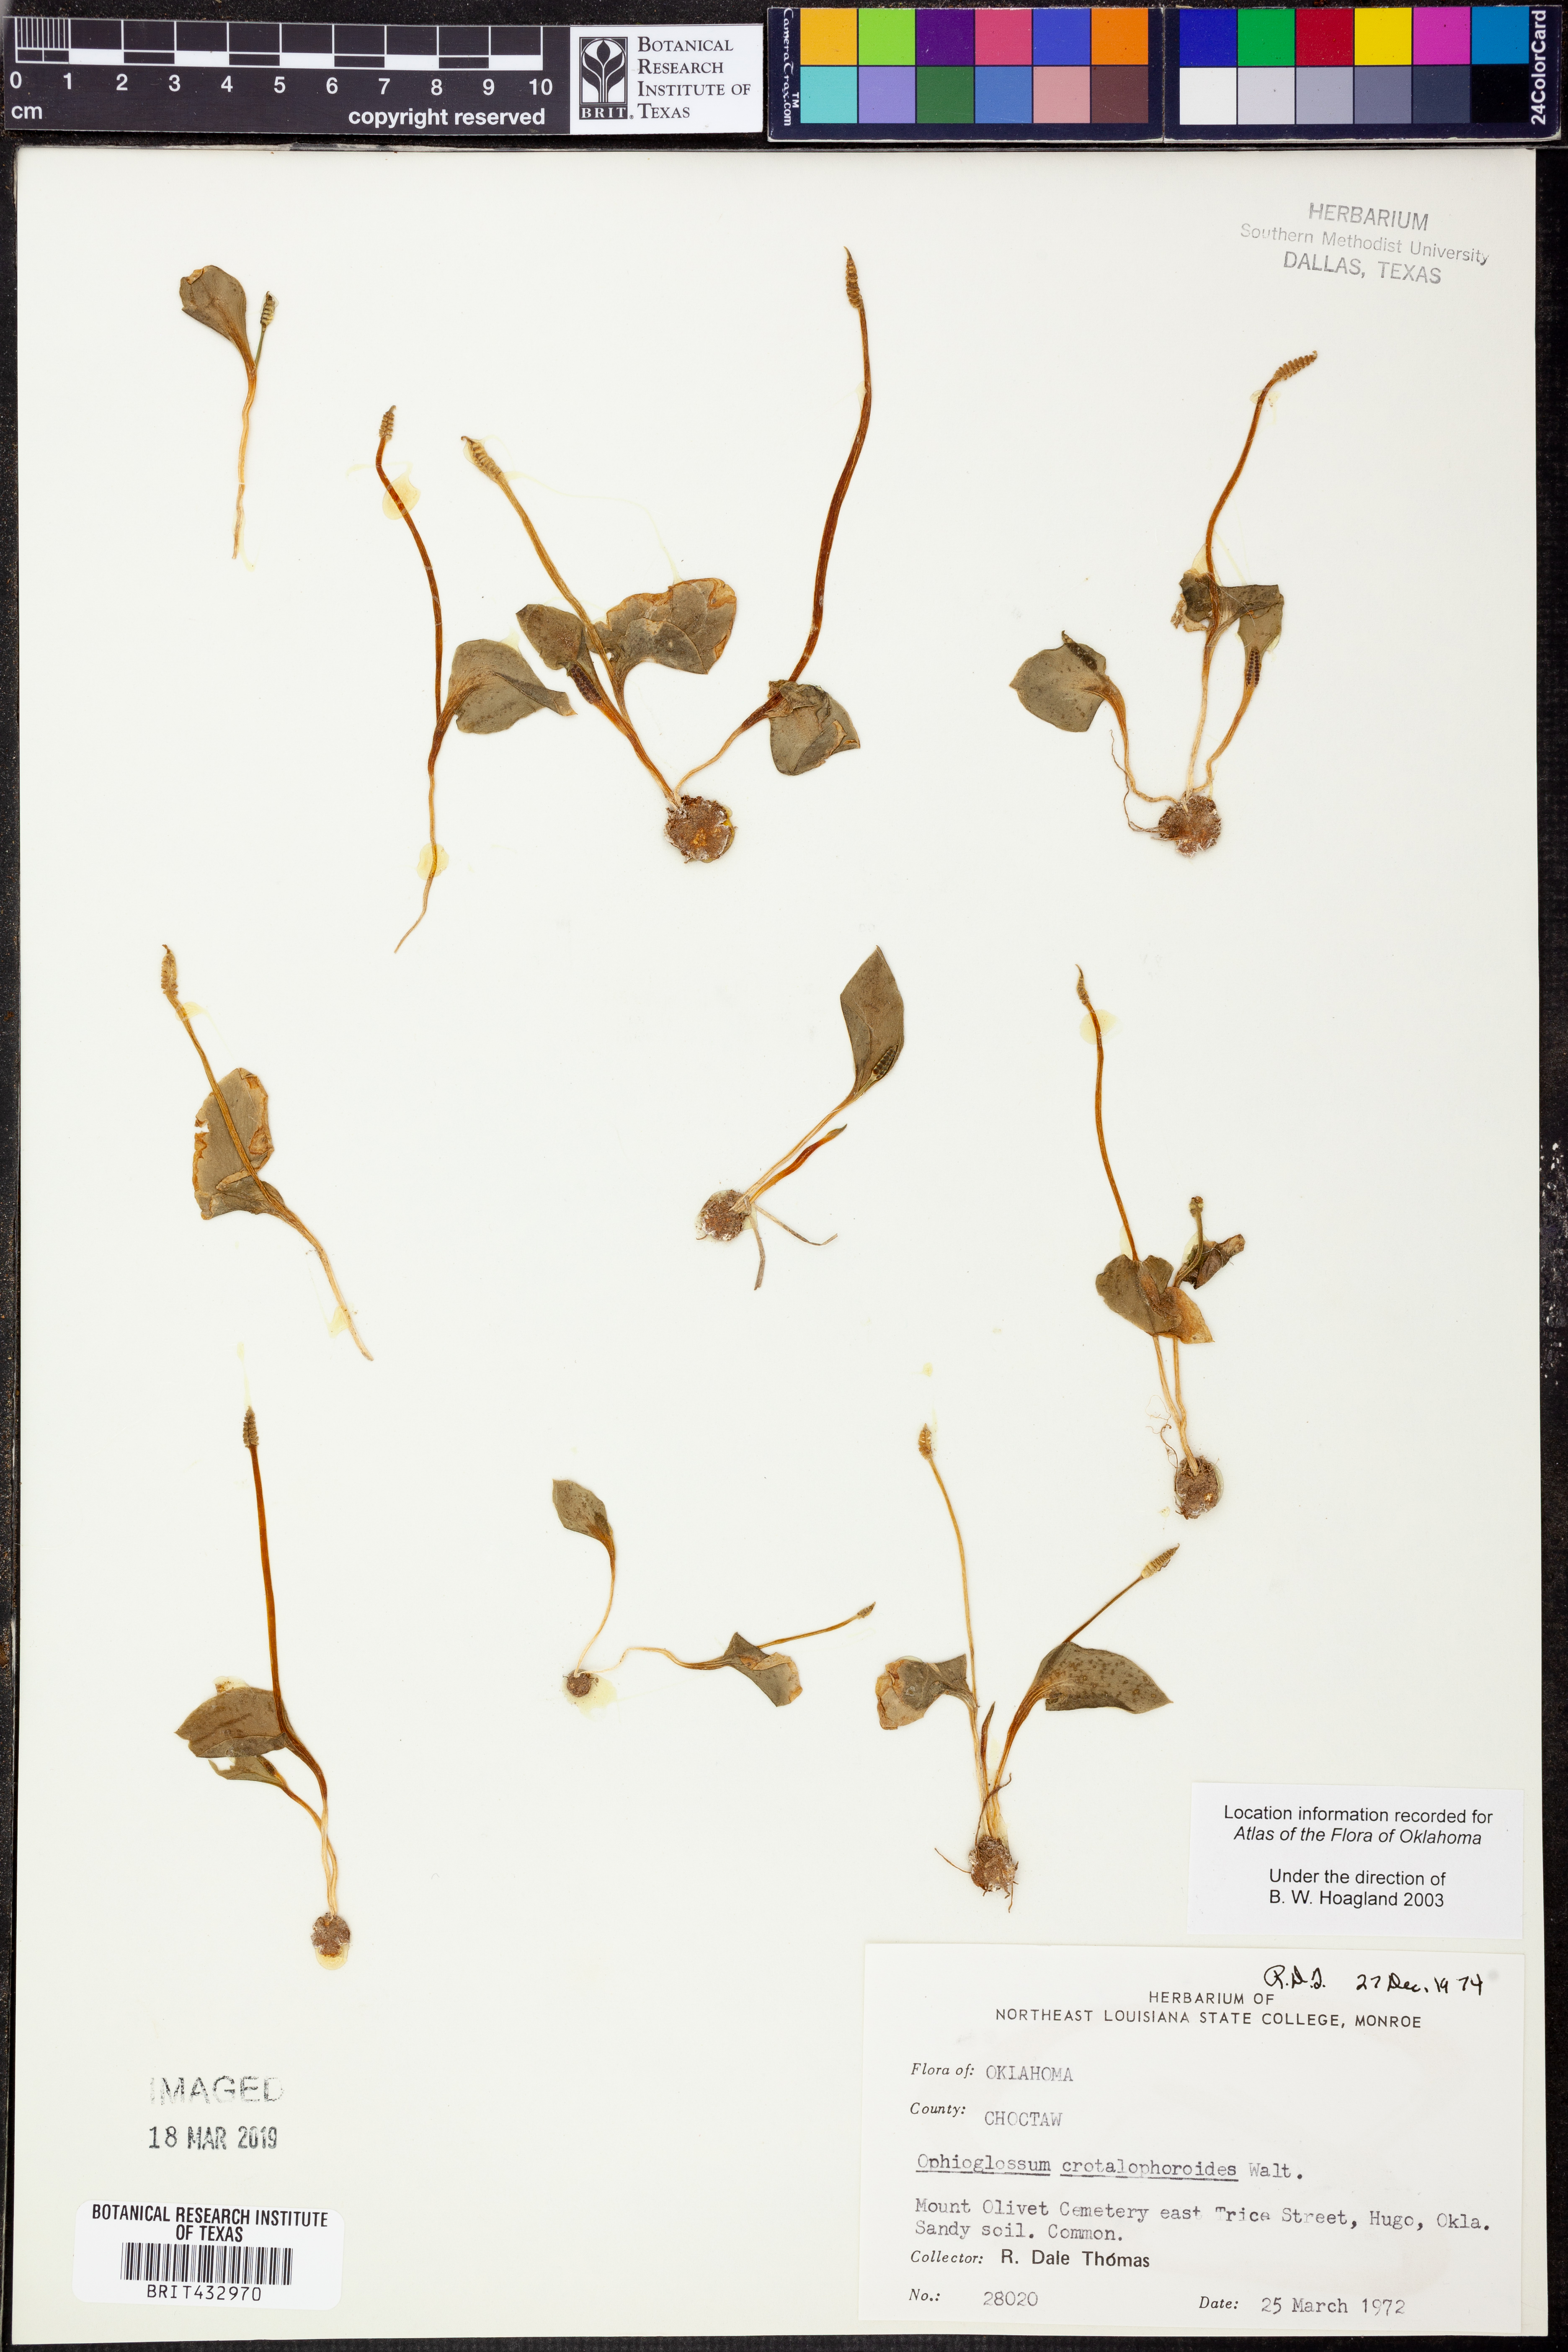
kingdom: Plantae
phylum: Tracheophyta
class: Polypodiopsida
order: Ophioglossales
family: Ophioglossaceae
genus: Ophioglossum
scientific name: Ophioglossum crotalophoroides
